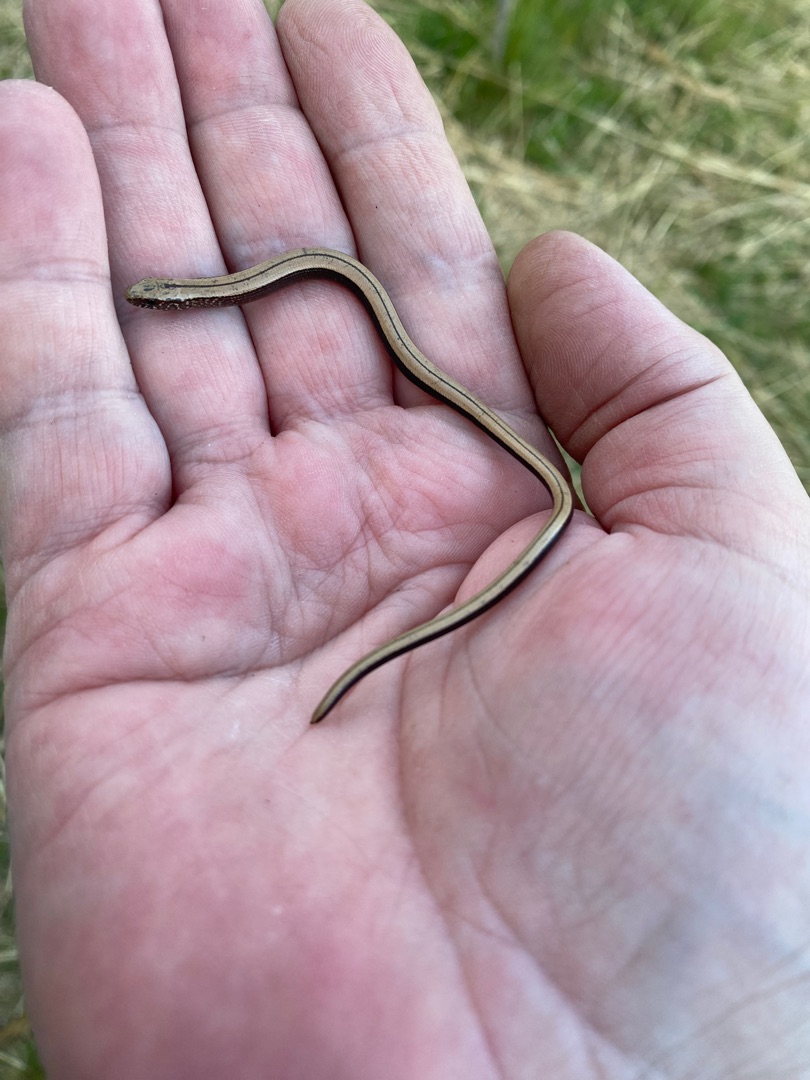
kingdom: Animalia
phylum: Chordata
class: Squamata
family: Anguidae
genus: Anguis
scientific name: Anguis fragilis
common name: Stålorm
